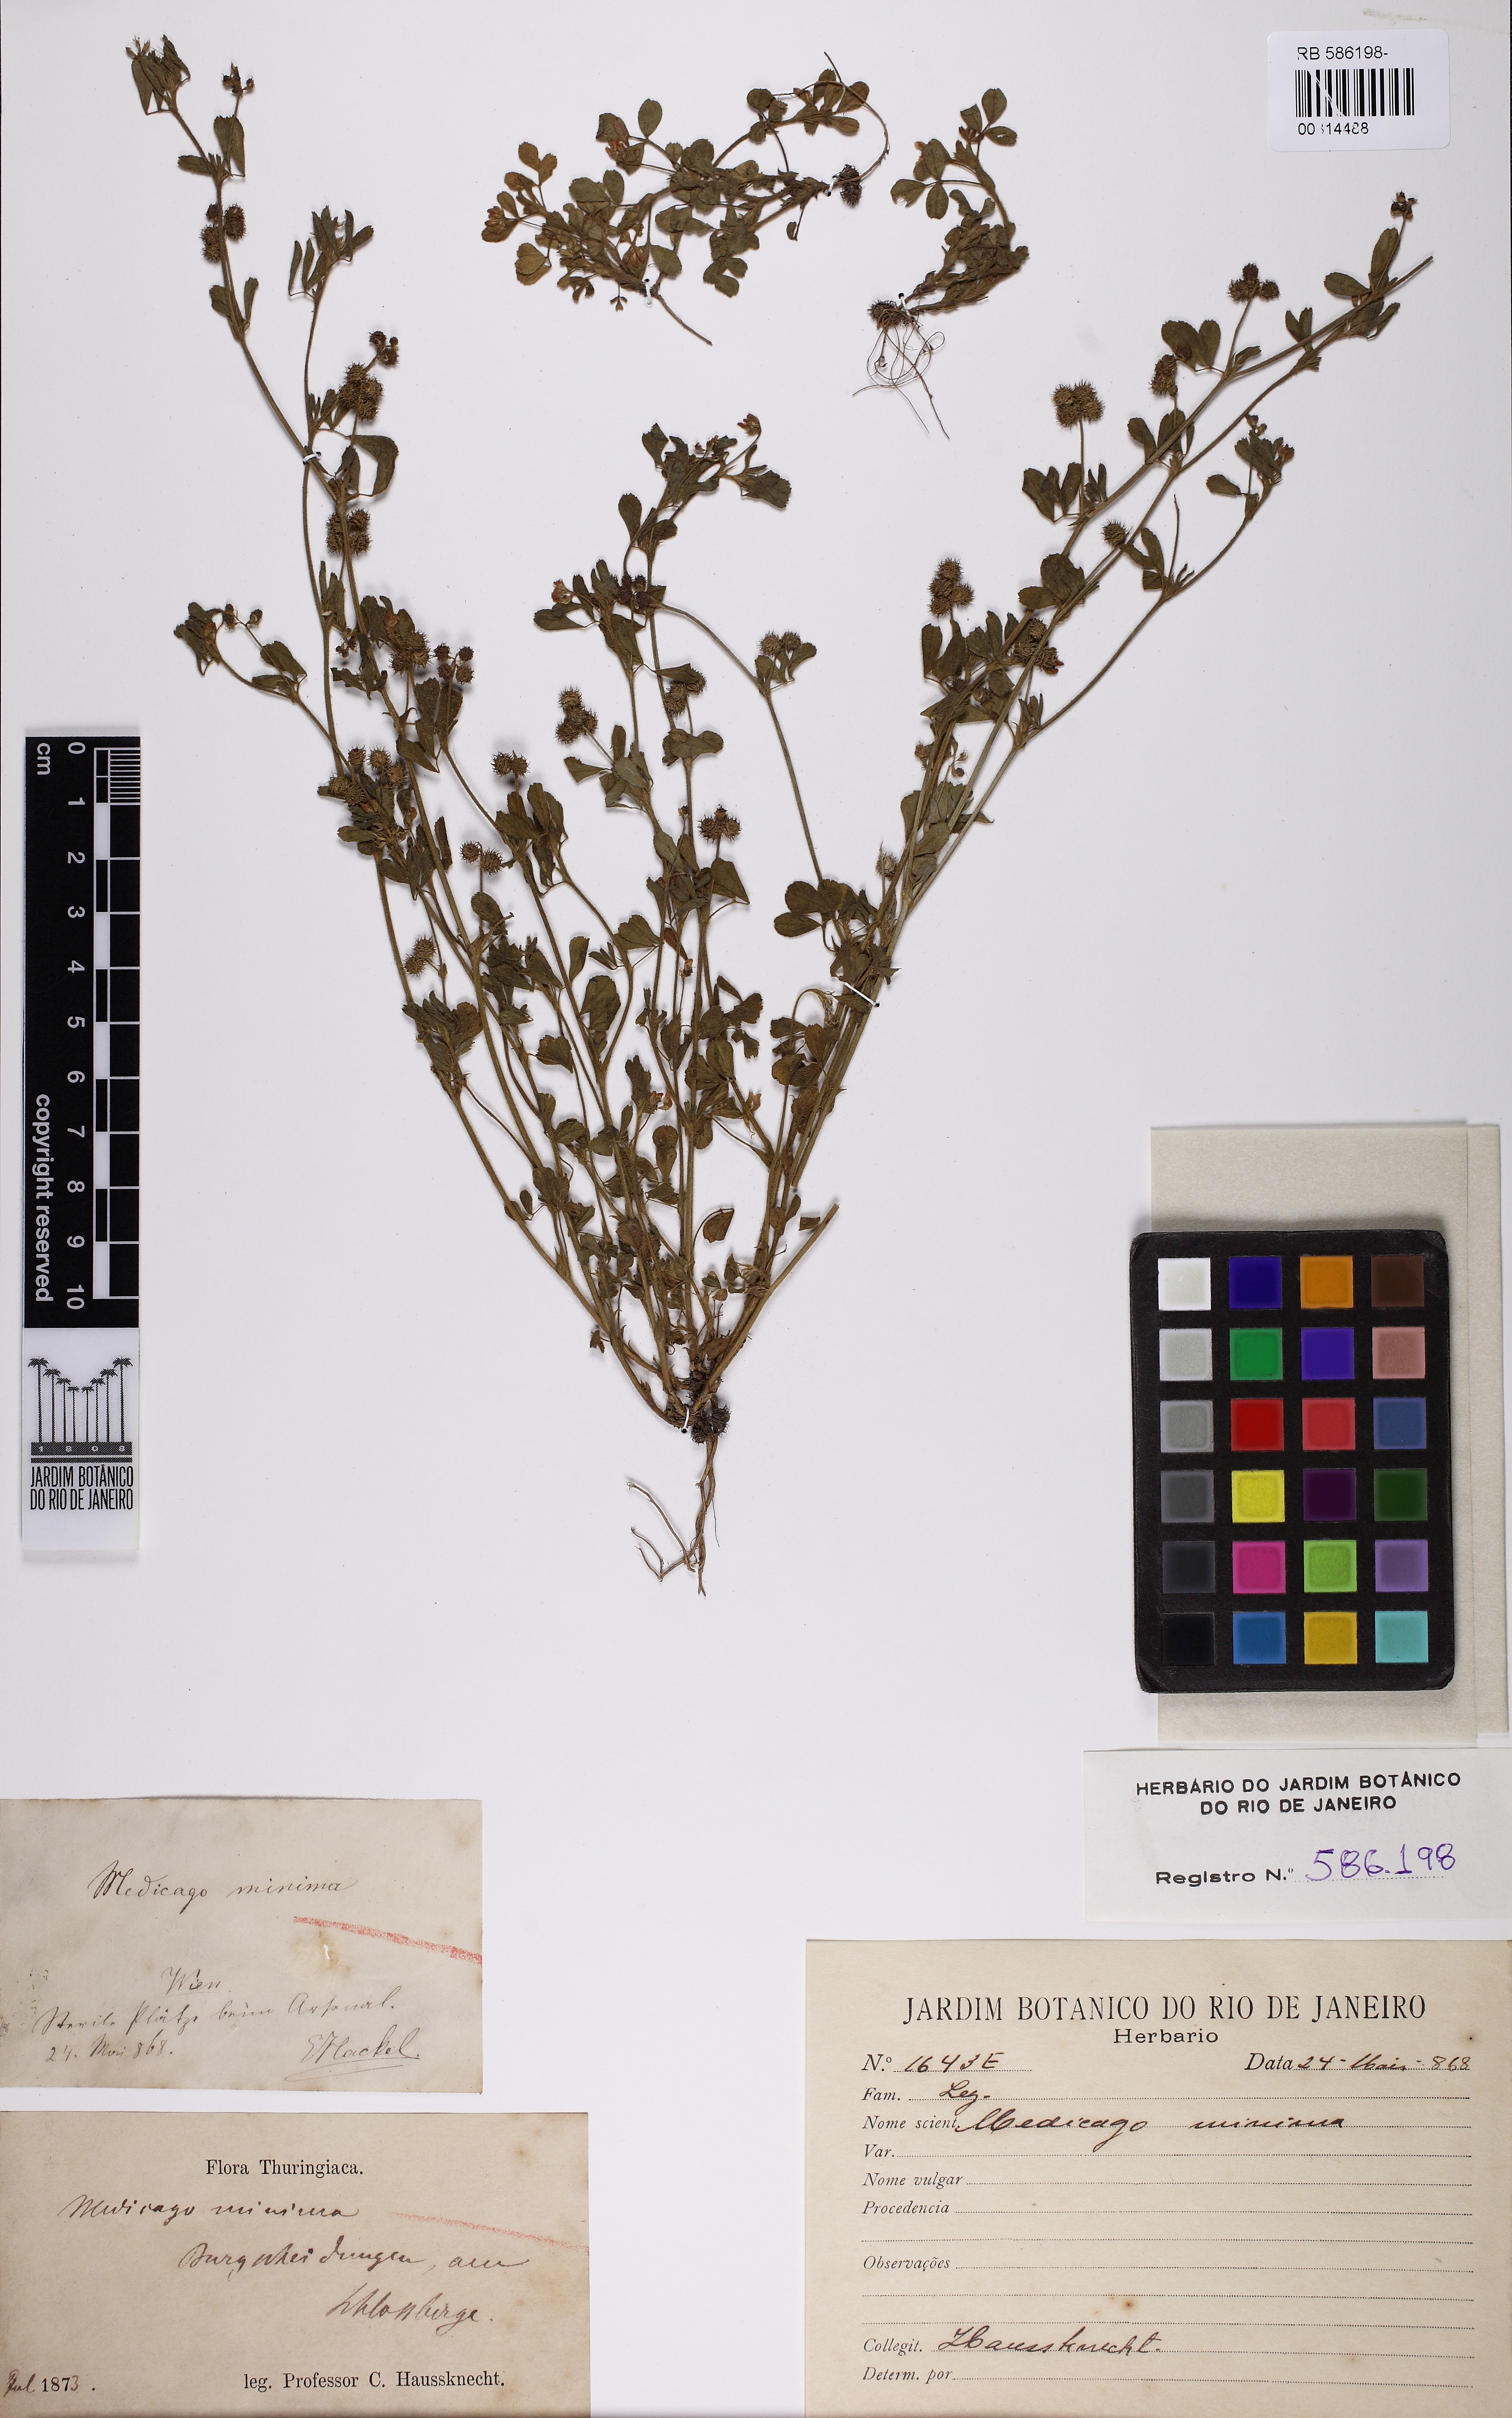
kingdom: Plantae
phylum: Tracheophyta
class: Magnoliopsida
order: Fabales
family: Fabaceae
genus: Medicago
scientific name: Medicago minima
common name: Little bur-clover
